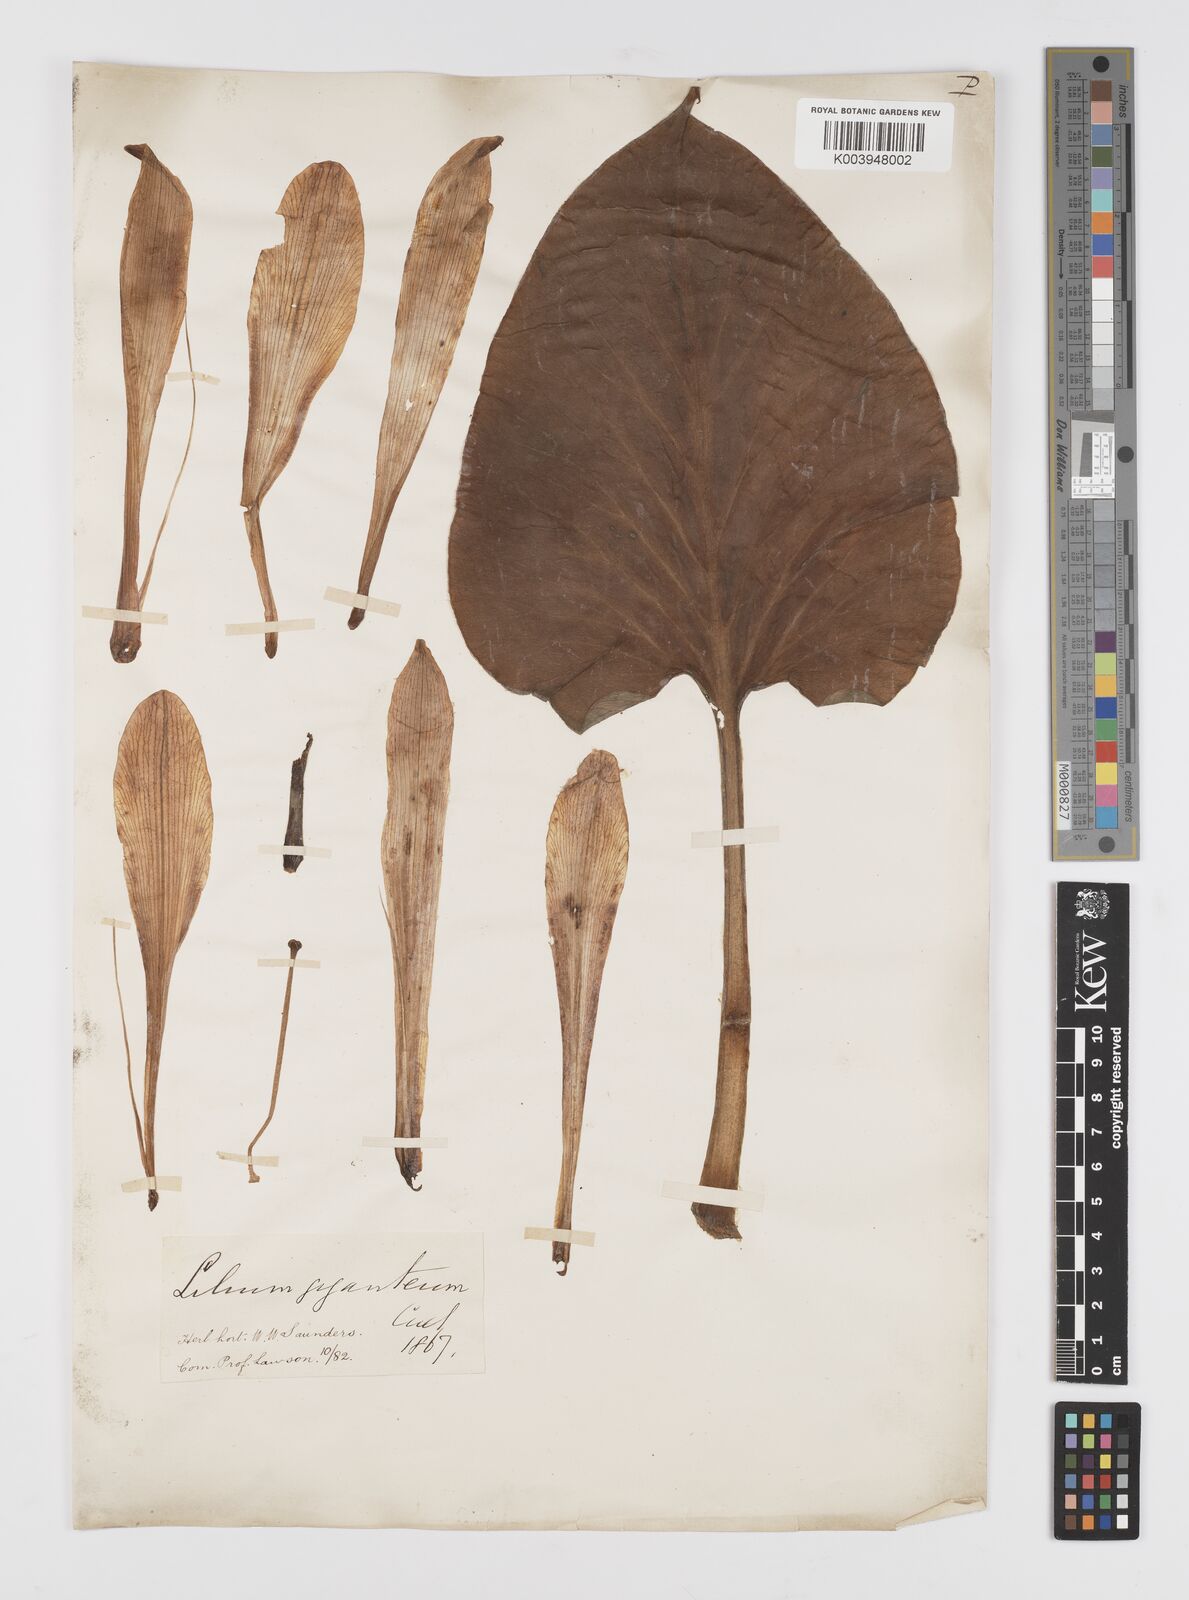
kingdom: Plantae
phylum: Tracheophyta
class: Liliopsida
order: Liliales
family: Liliaceae
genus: Cardiocrinum
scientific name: Cardiocrinum giganteum
